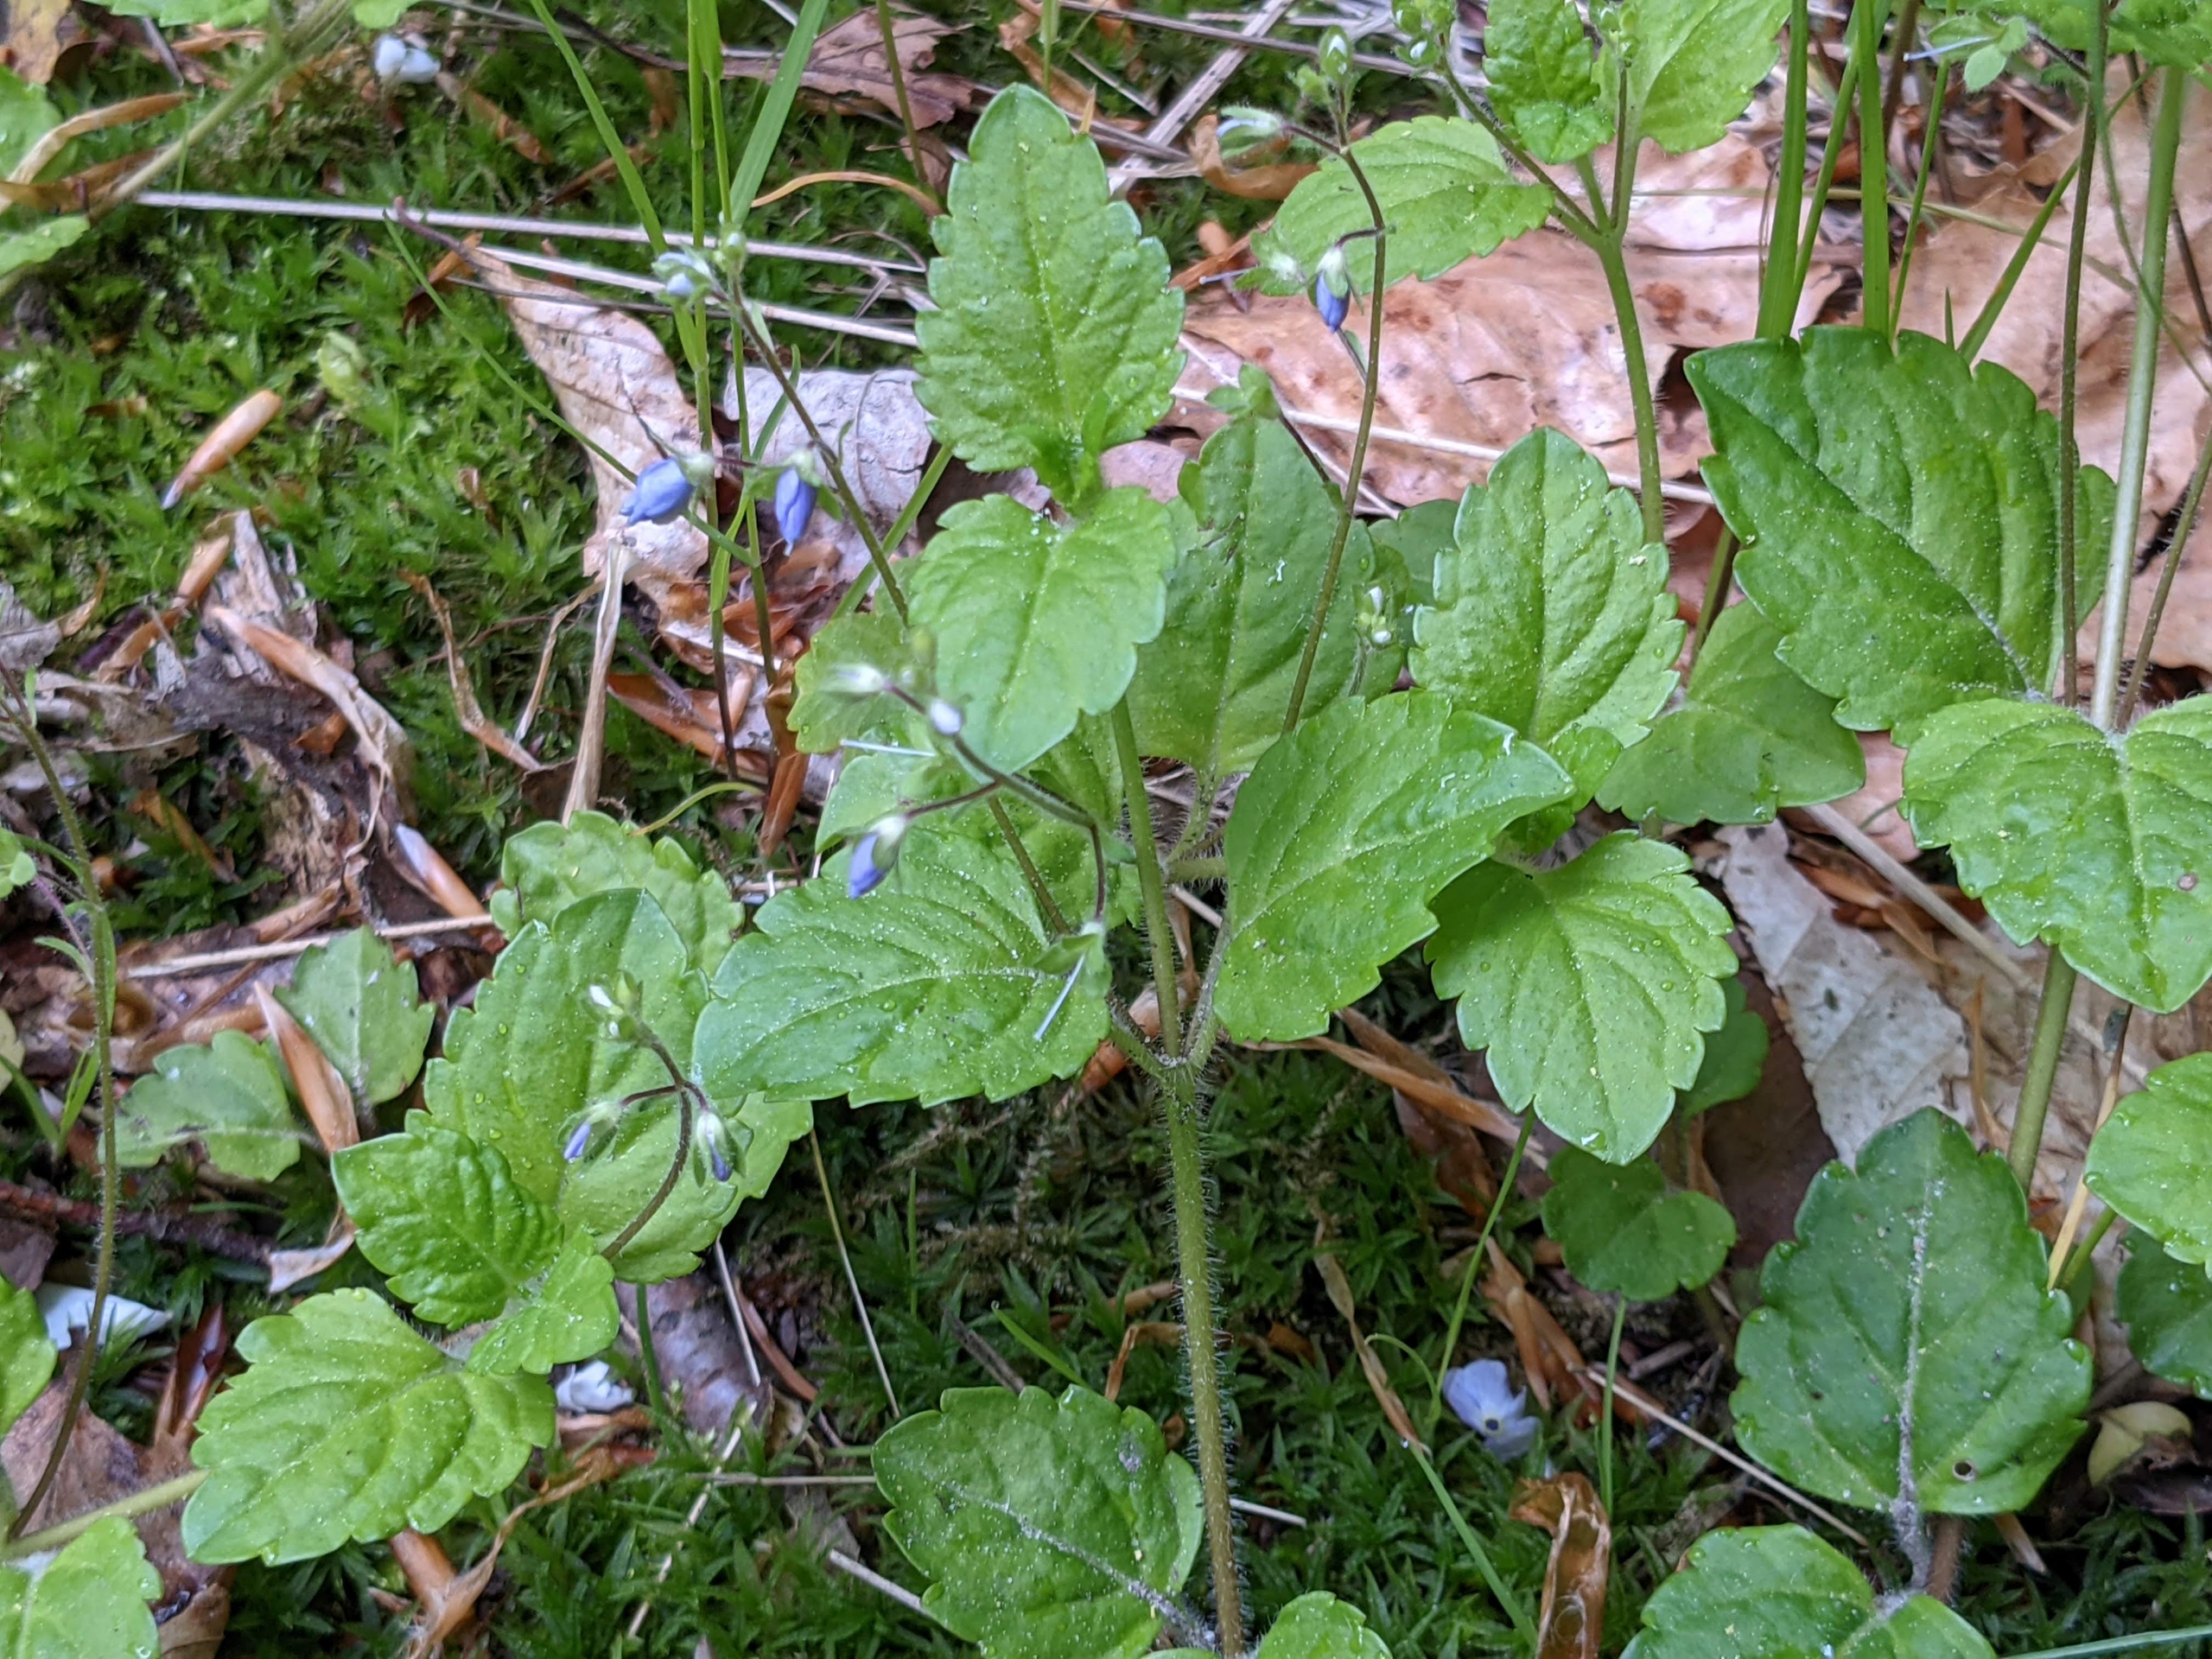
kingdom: Plantae
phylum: Tracheophyta
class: Magnoliopsida
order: Lamiales
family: Plantaginaceae
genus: Veronica
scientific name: Veronica montana
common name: Bjerg-ærenpris
